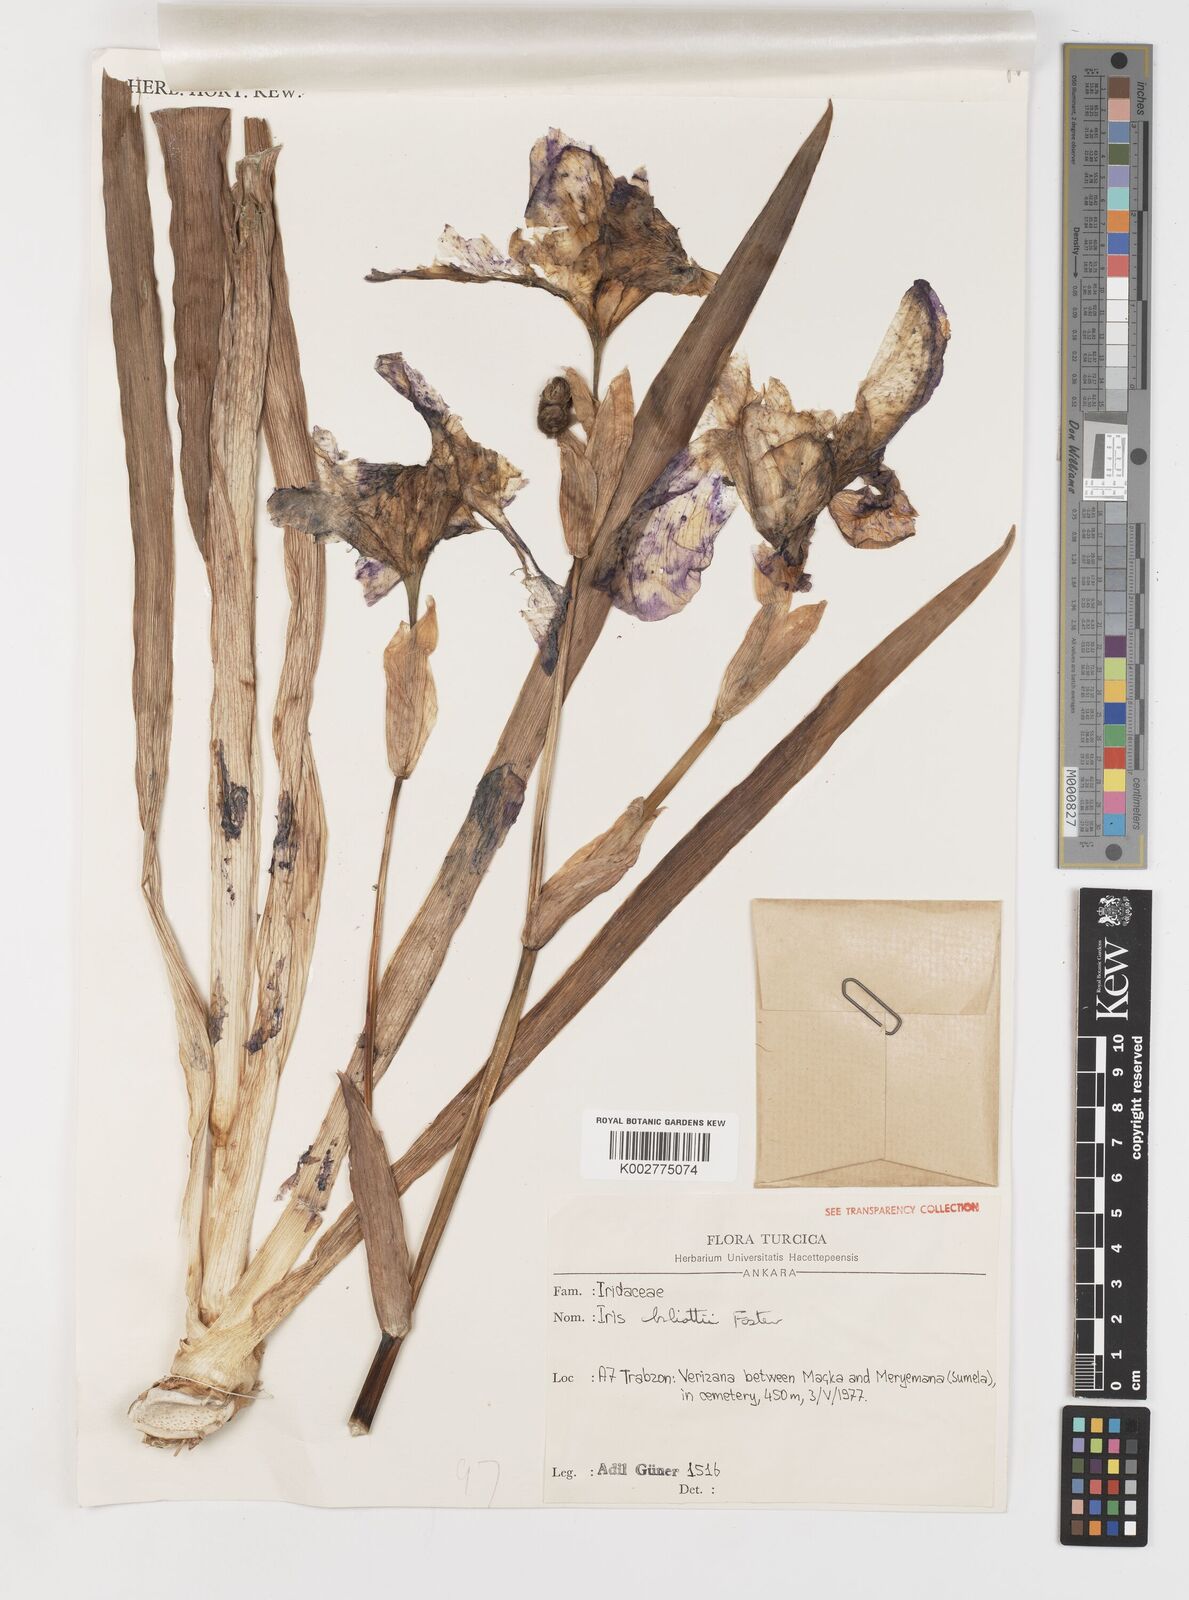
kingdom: Plantae
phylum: Tracheophyta
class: Liliopsida
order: Asparagales
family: Iridaceae
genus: Iris
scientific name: Iris germanica
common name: German iris
